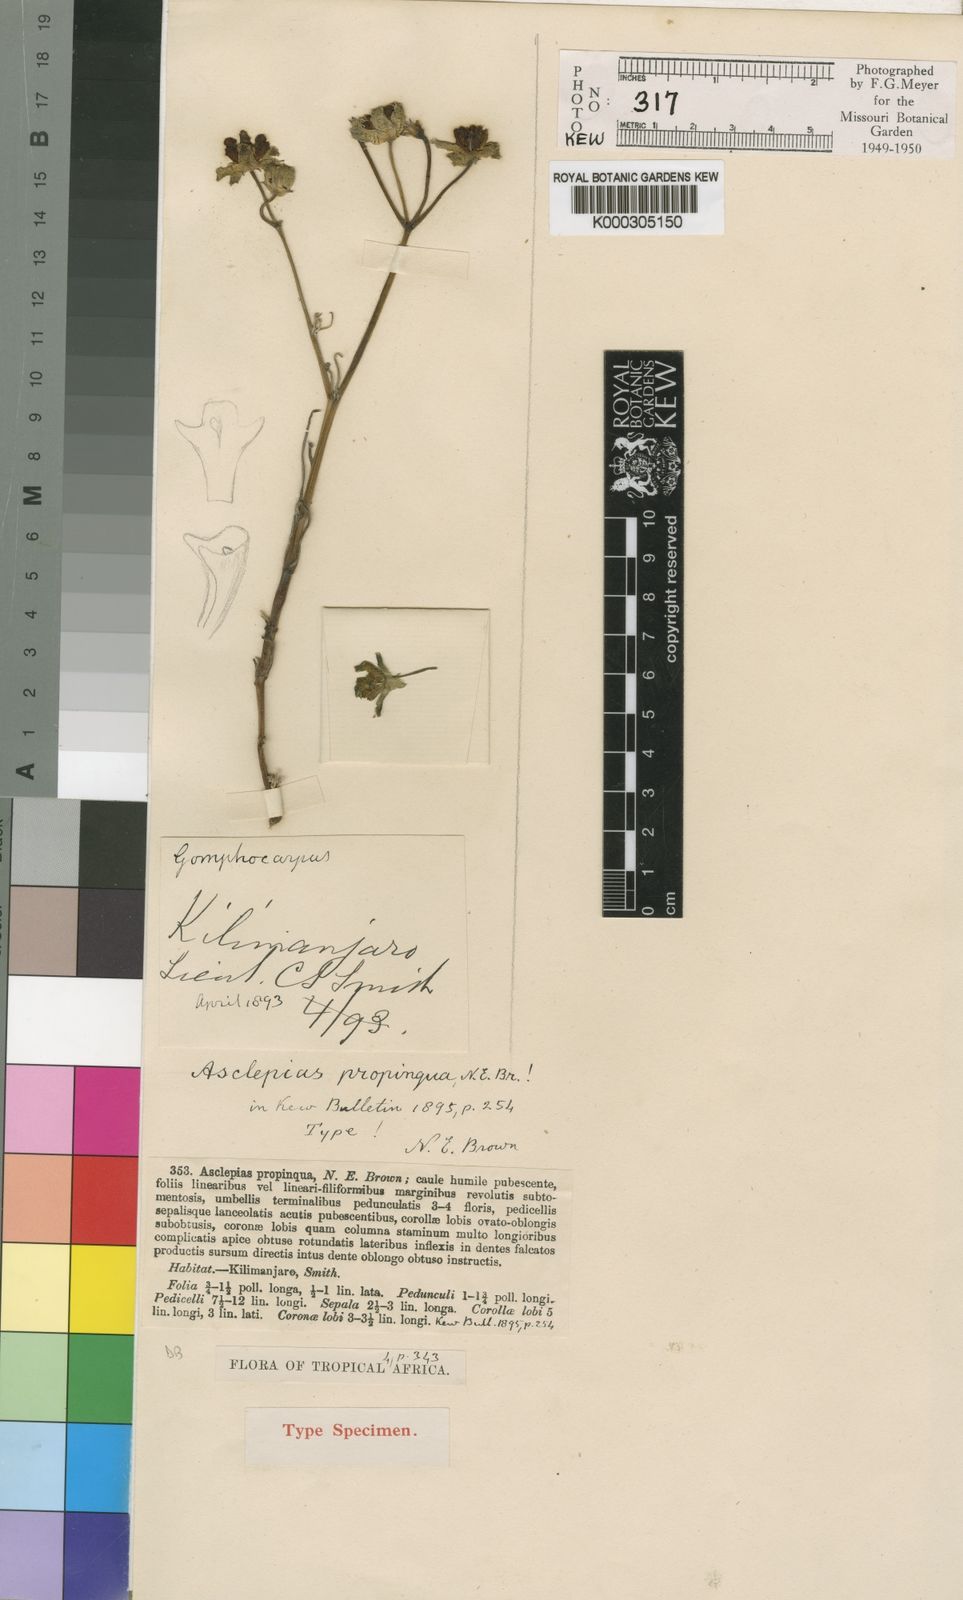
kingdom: Plantae
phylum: Tracheophyta
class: Magnoliopsida
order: Gentianales
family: Apocynaceae
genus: Stathmostelma
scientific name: Stathmostelma propinquum
